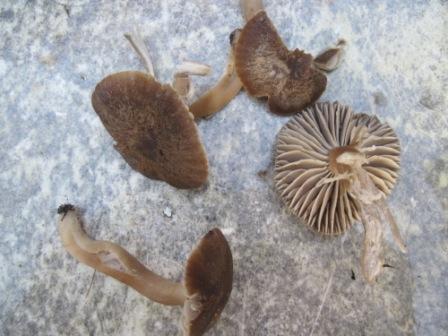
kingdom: Fungi
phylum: Basidiomycota
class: Agaricomycetes
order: Agaricales
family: Hygrophoraceae
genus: Neohygrocybe
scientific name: Neohygrocybe nitrata
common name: stinkende vokshat
